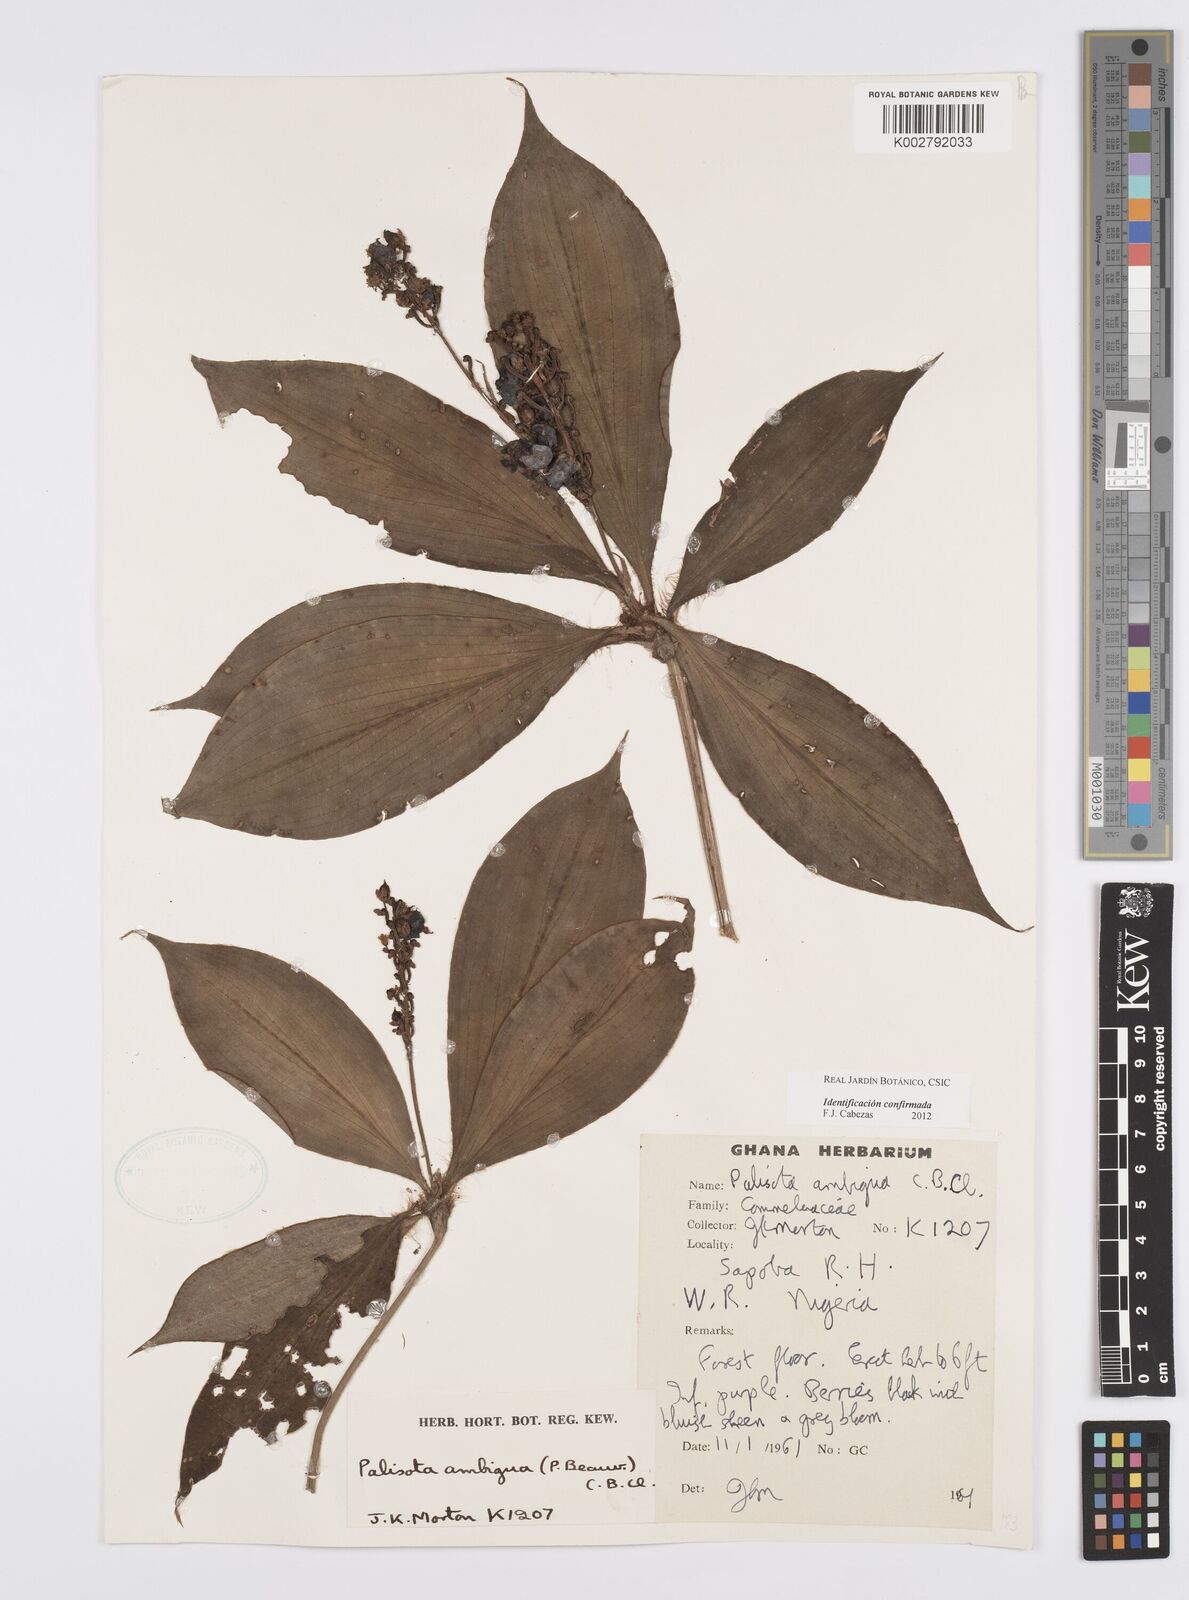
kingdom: Plantae
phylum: Tracheophyta
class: Liliopsida
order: Commelinales
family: Commelinaceae
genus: Palisota
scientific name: Palisota ambigua
